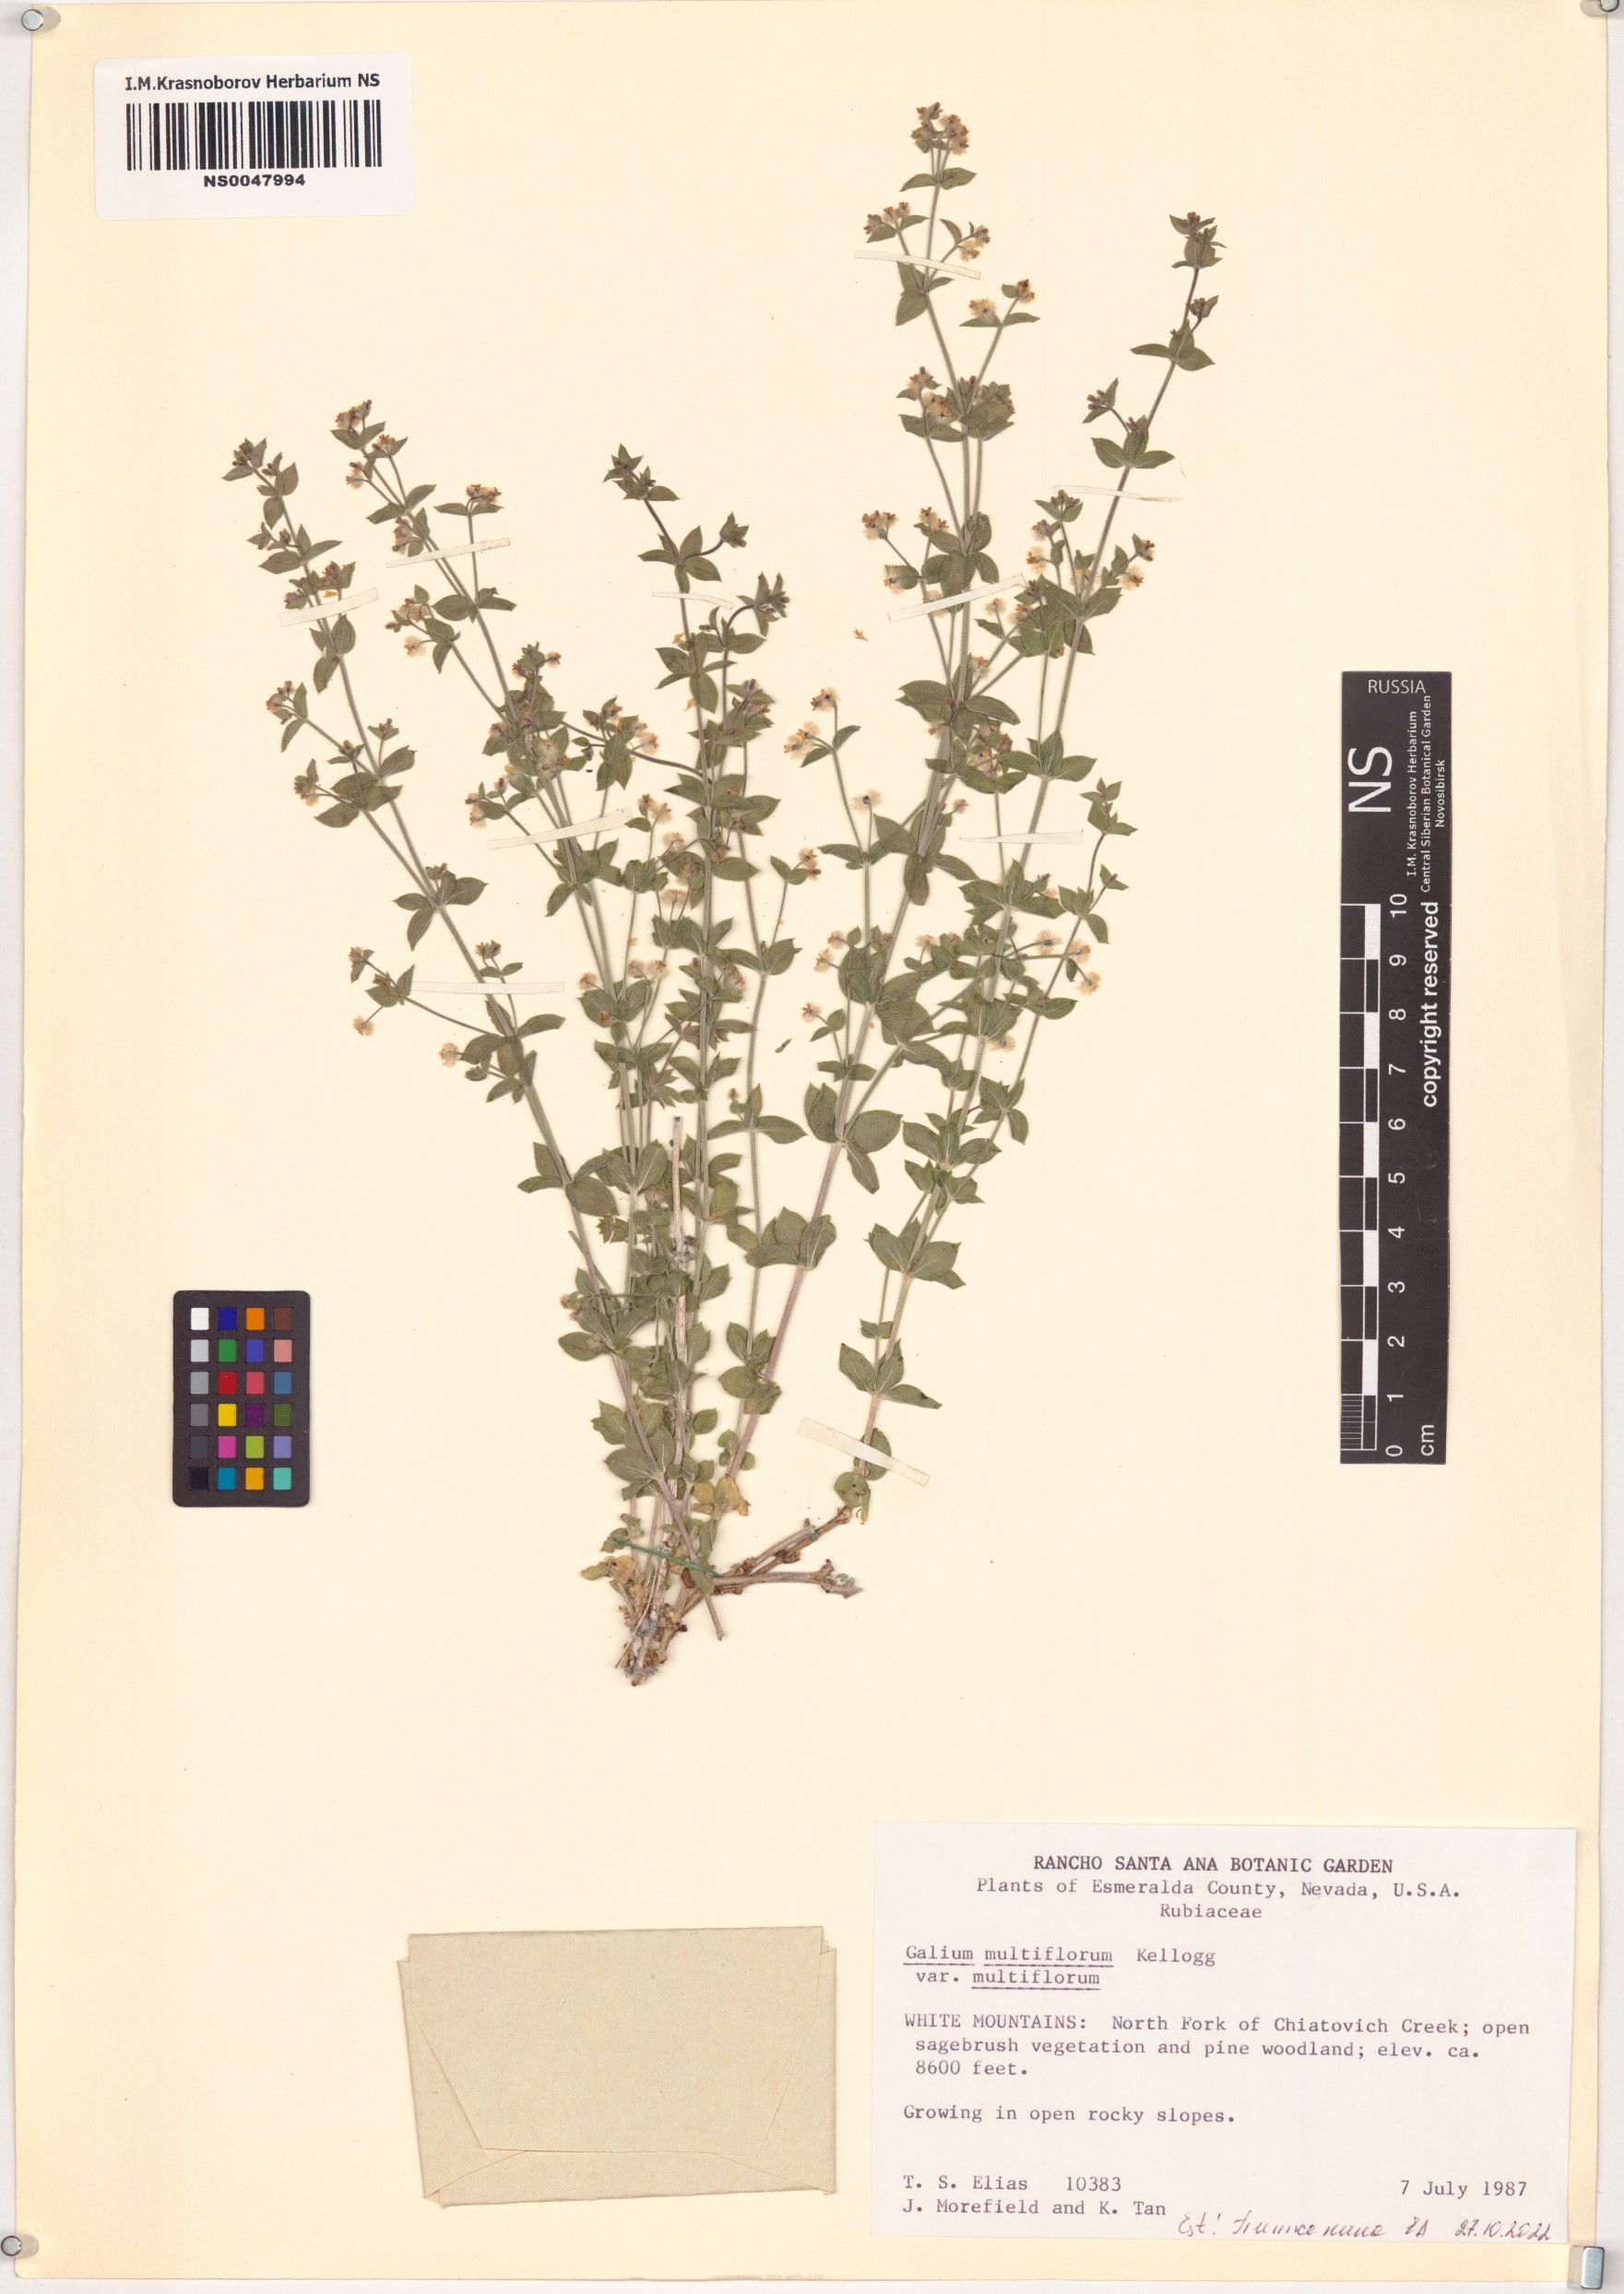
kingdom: Plantae
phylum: Tracheophyta
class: Magnoliopsida
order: Gentianales
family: Rubiaceae
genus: Galium
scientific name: Galium multiflorum
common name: Many-flowered bedstraw
